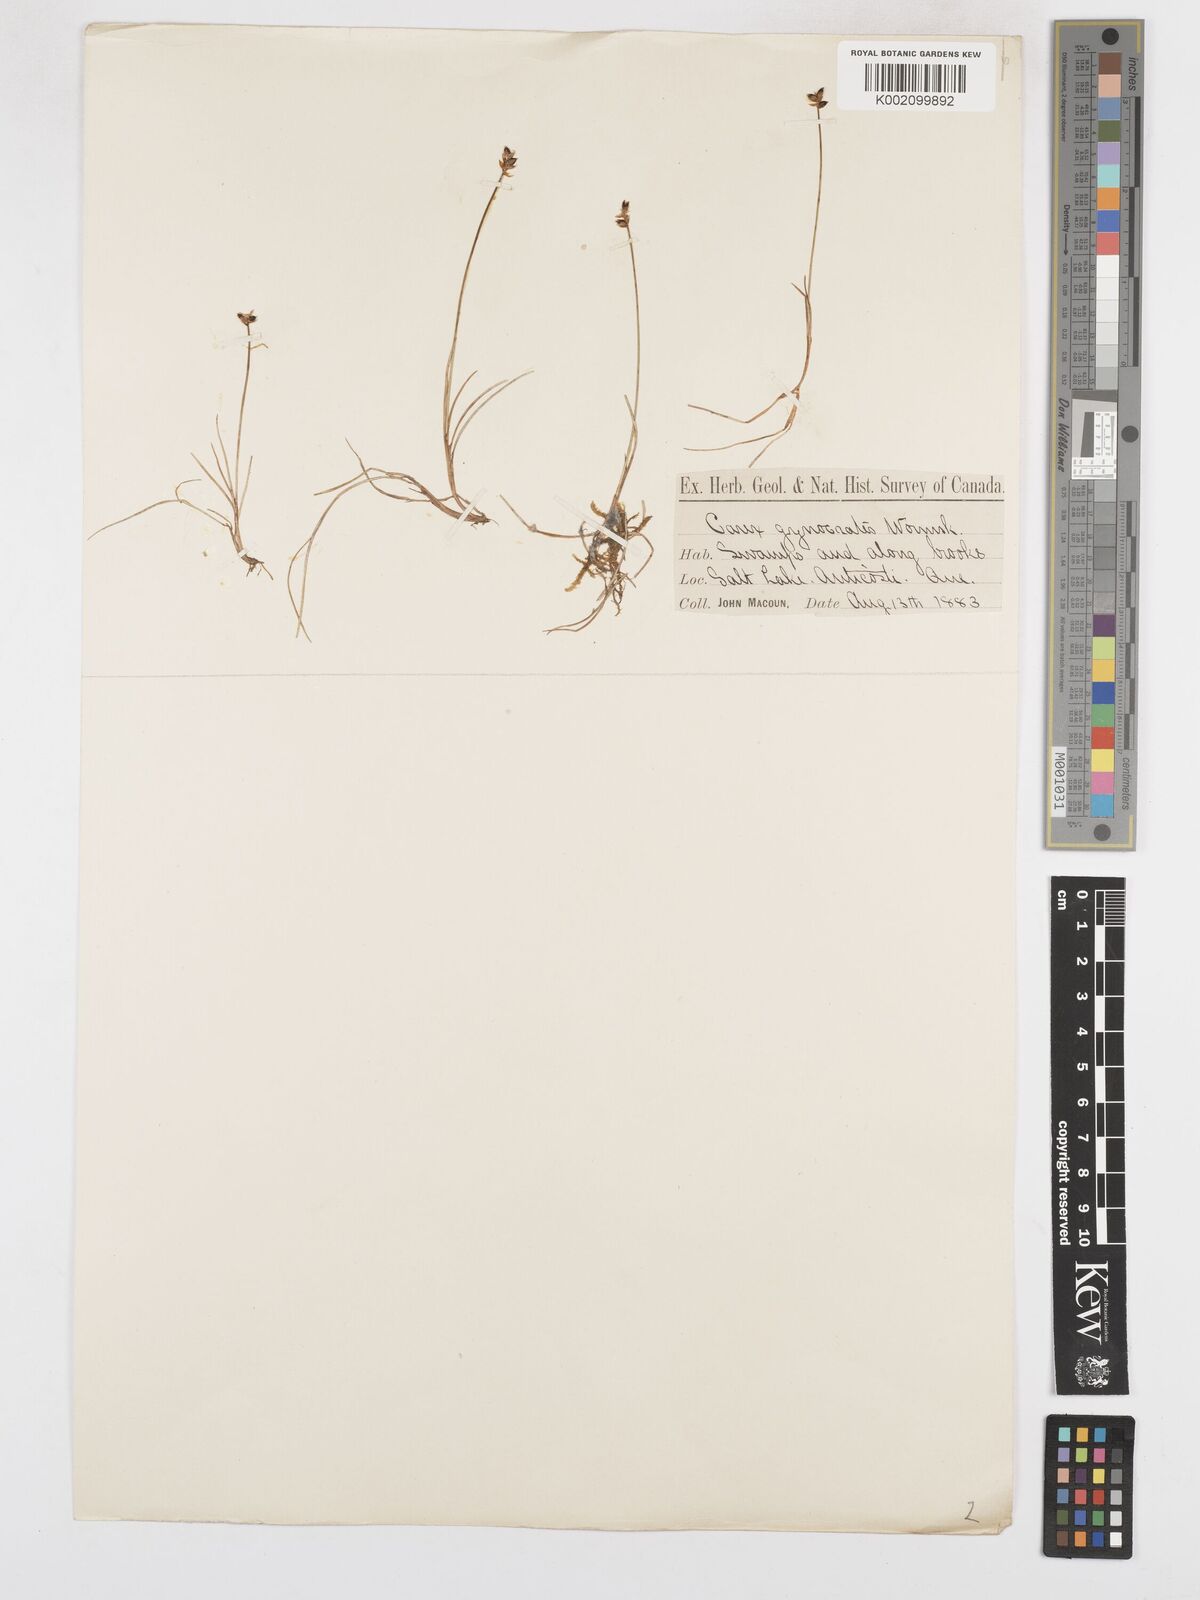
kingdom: Plantae
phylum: Tracheophyta
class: Liliopsida
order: Poales
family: Cyperaceae
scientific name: Cyperaceae
